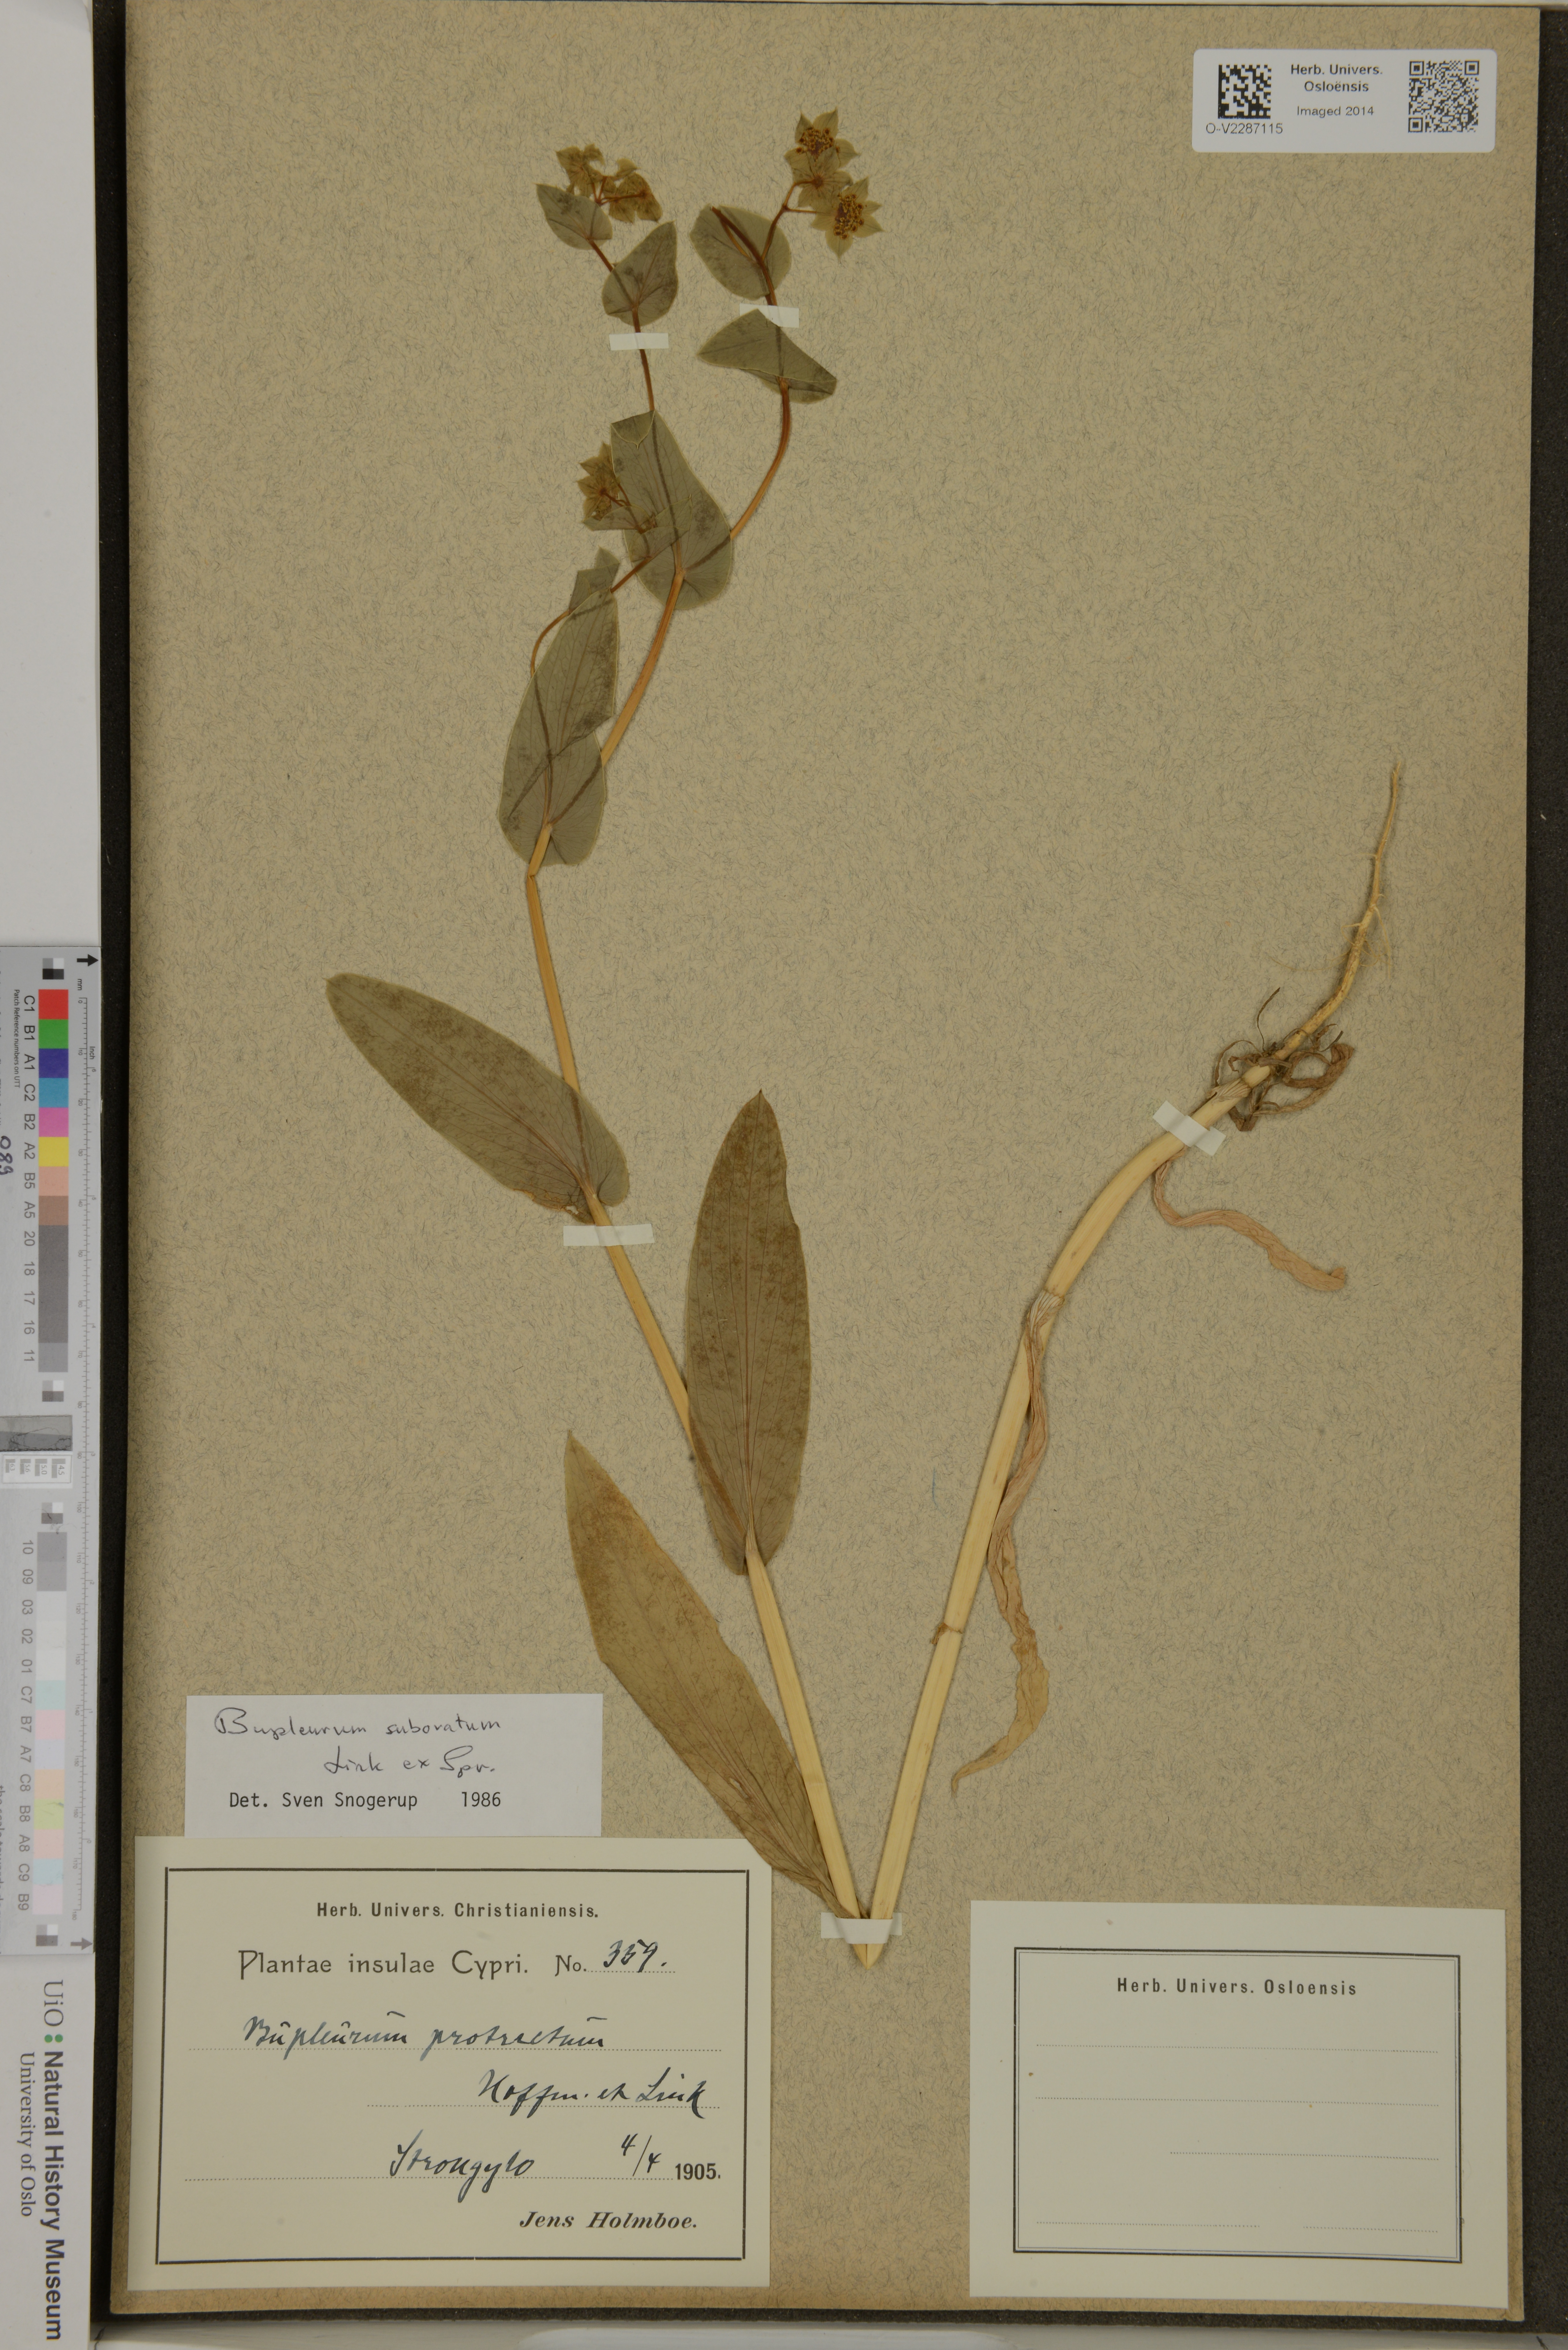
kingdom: Plantae
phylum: Tracheophyta
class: Magnoliopsida
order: Apiales
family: Apiaceae
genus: Bupleurum
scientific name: Bupleurum subovatum
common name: False thorow-wax
